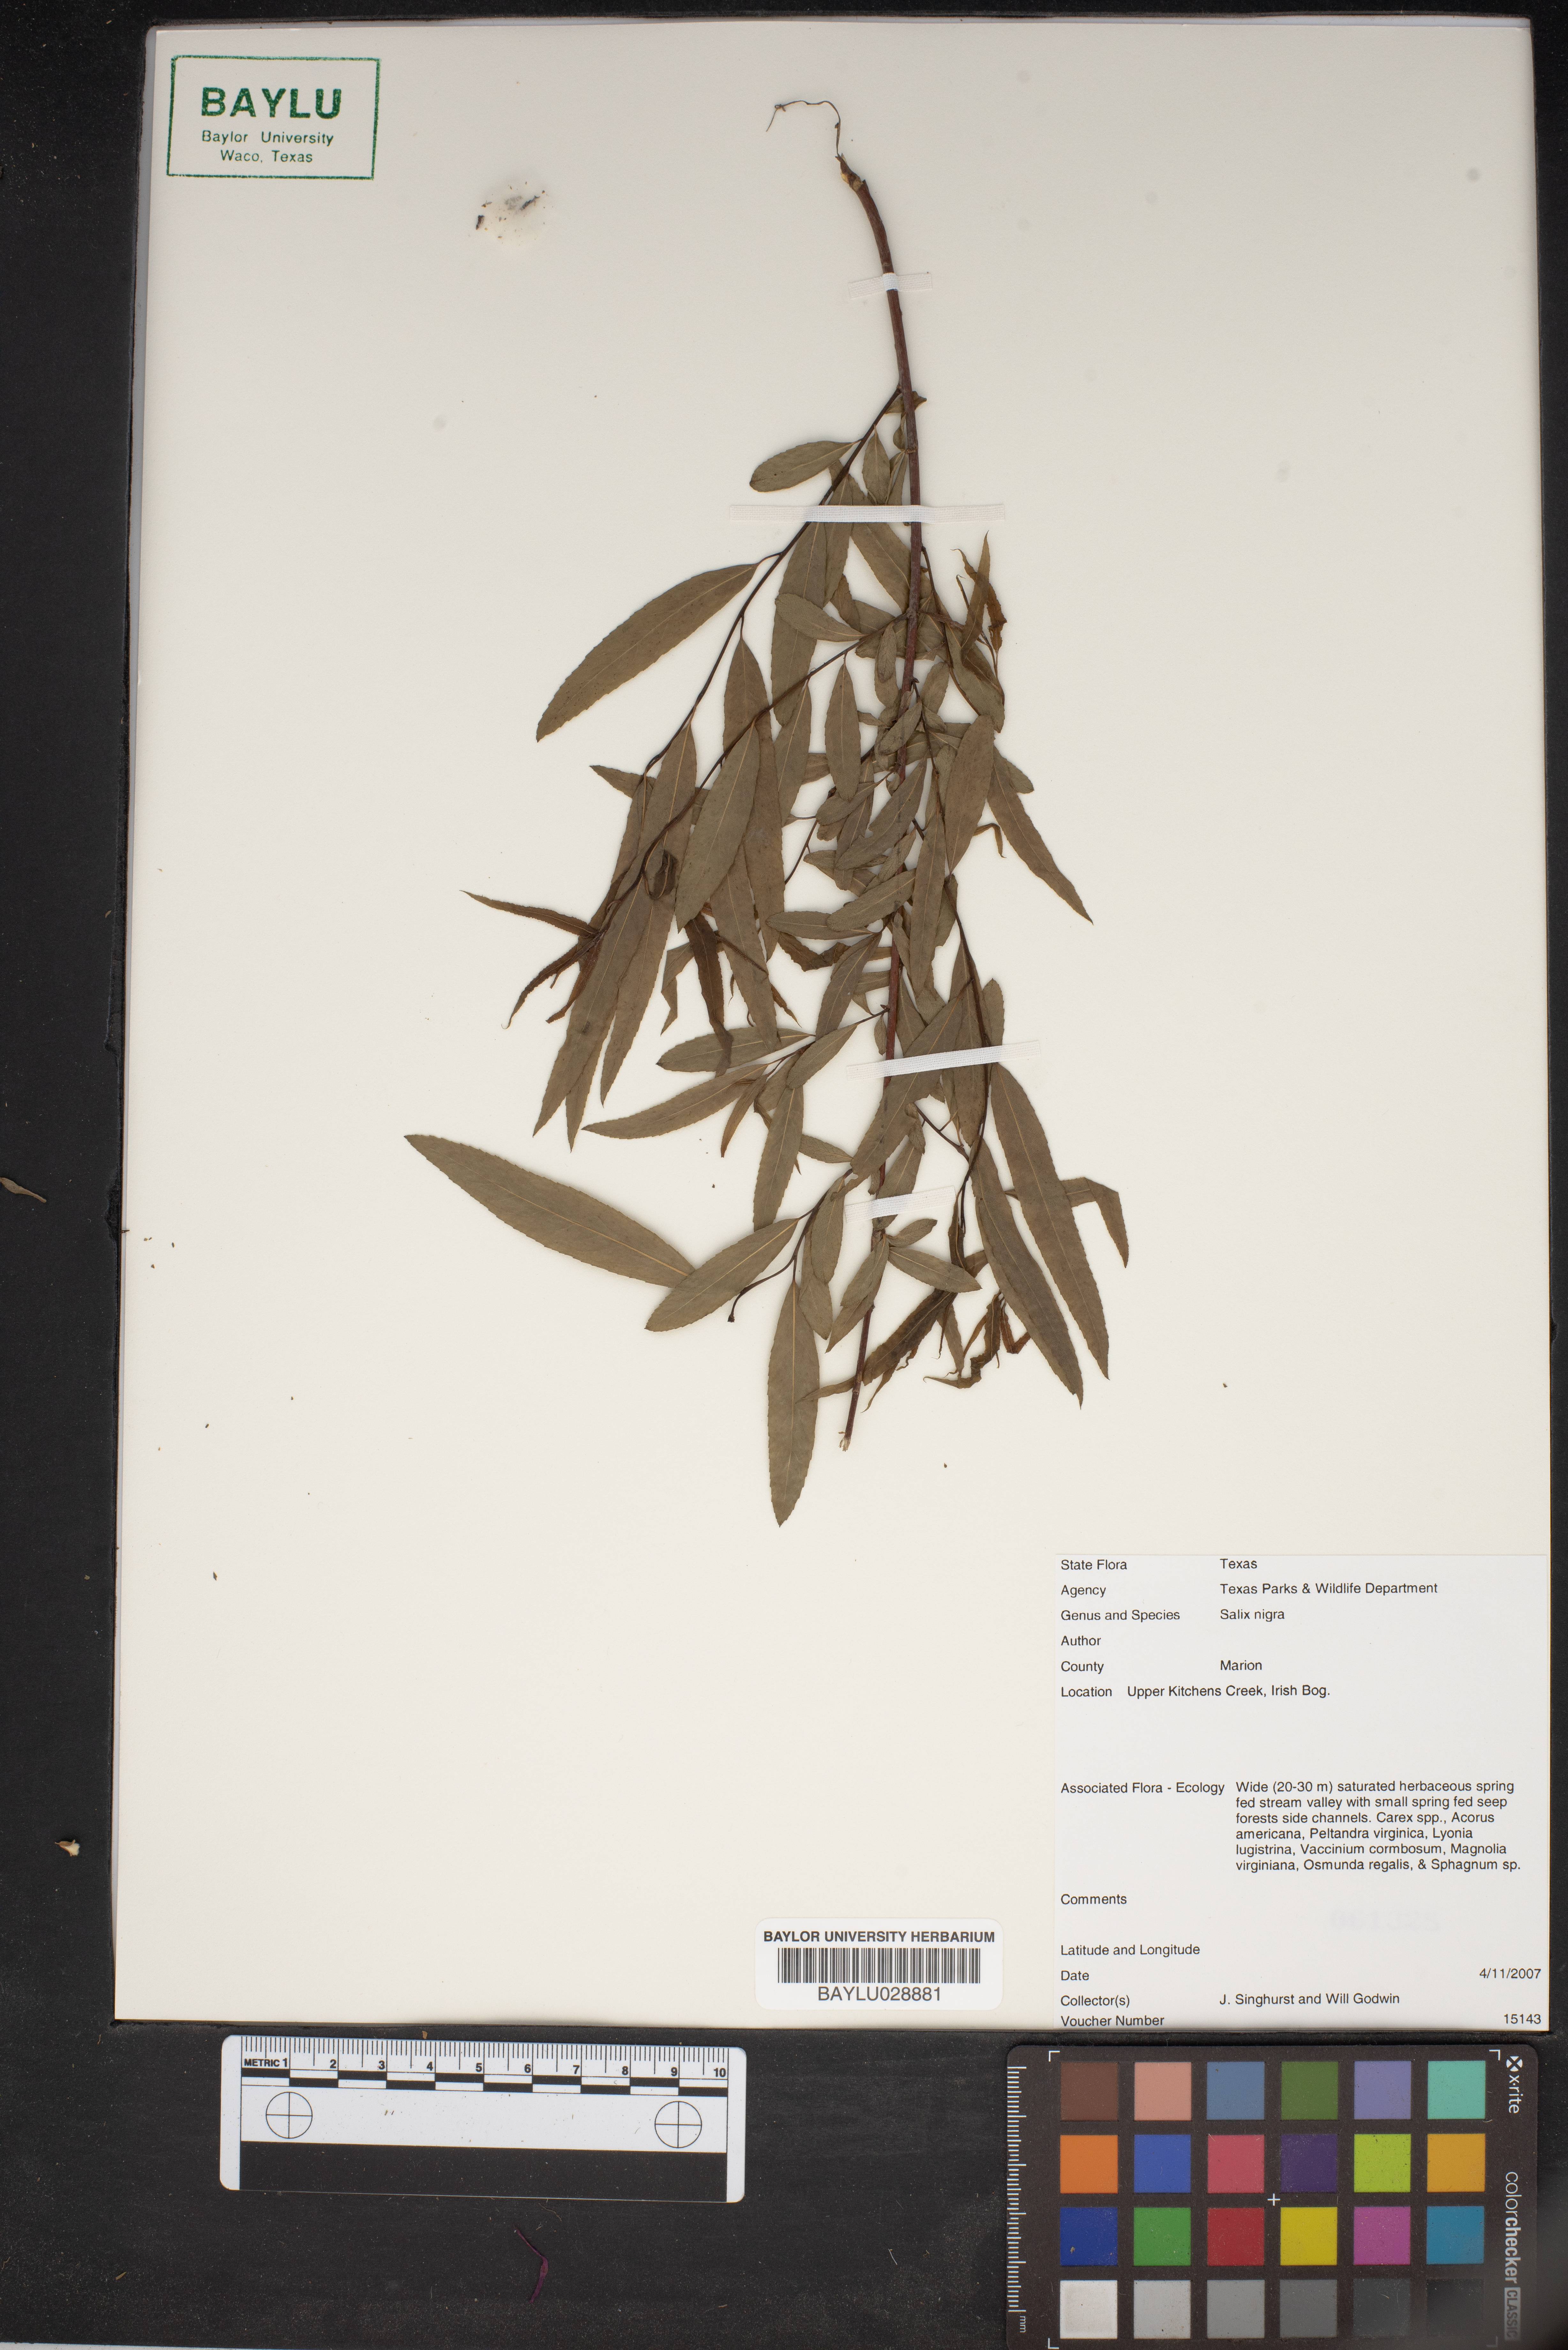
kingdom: Plantae
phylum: Tracheophyta
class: Magnoliopsida
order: Malpighiales
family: Salicaceae
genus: Salix
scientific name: Salix nigra
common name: Black willow
